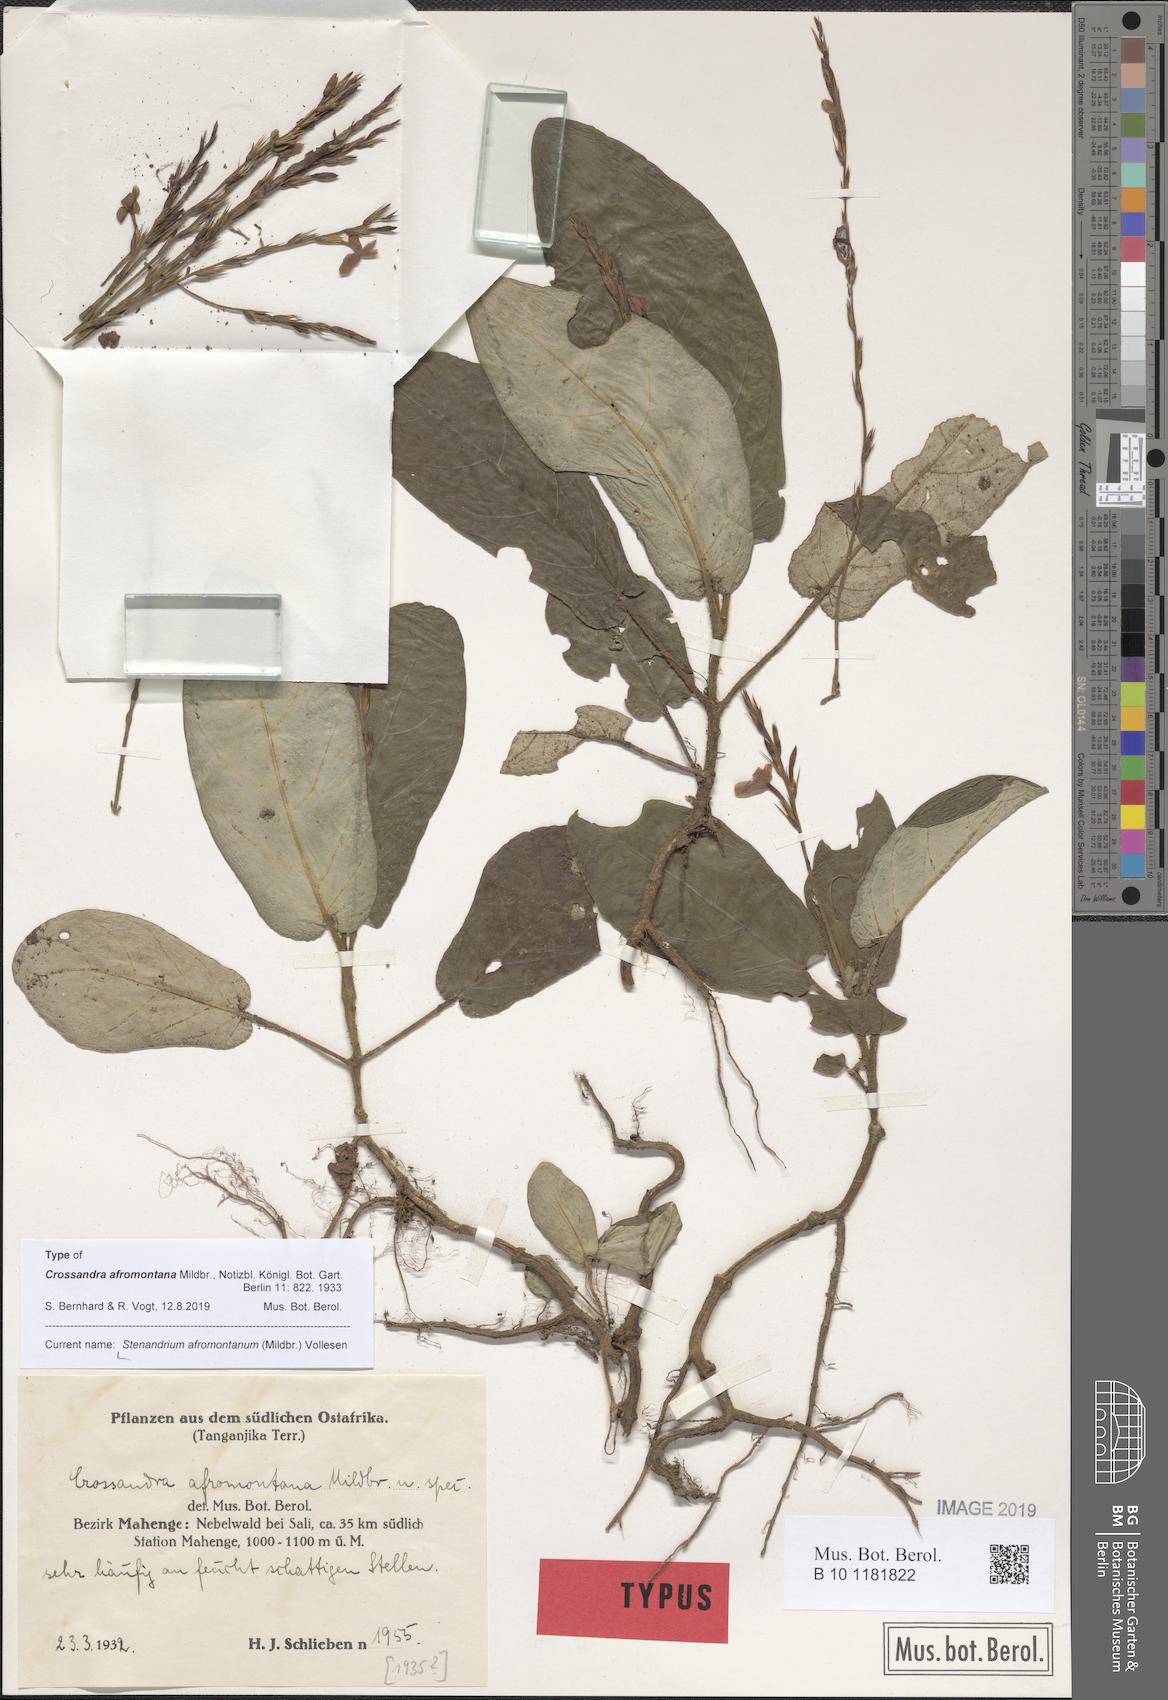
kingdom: Plantae
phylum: Tracheophyta
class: Magnoliopsida
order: Lamiales
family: Acanthaceae
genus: Stenandriopsis
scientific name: Stenandriopsis afromontana
